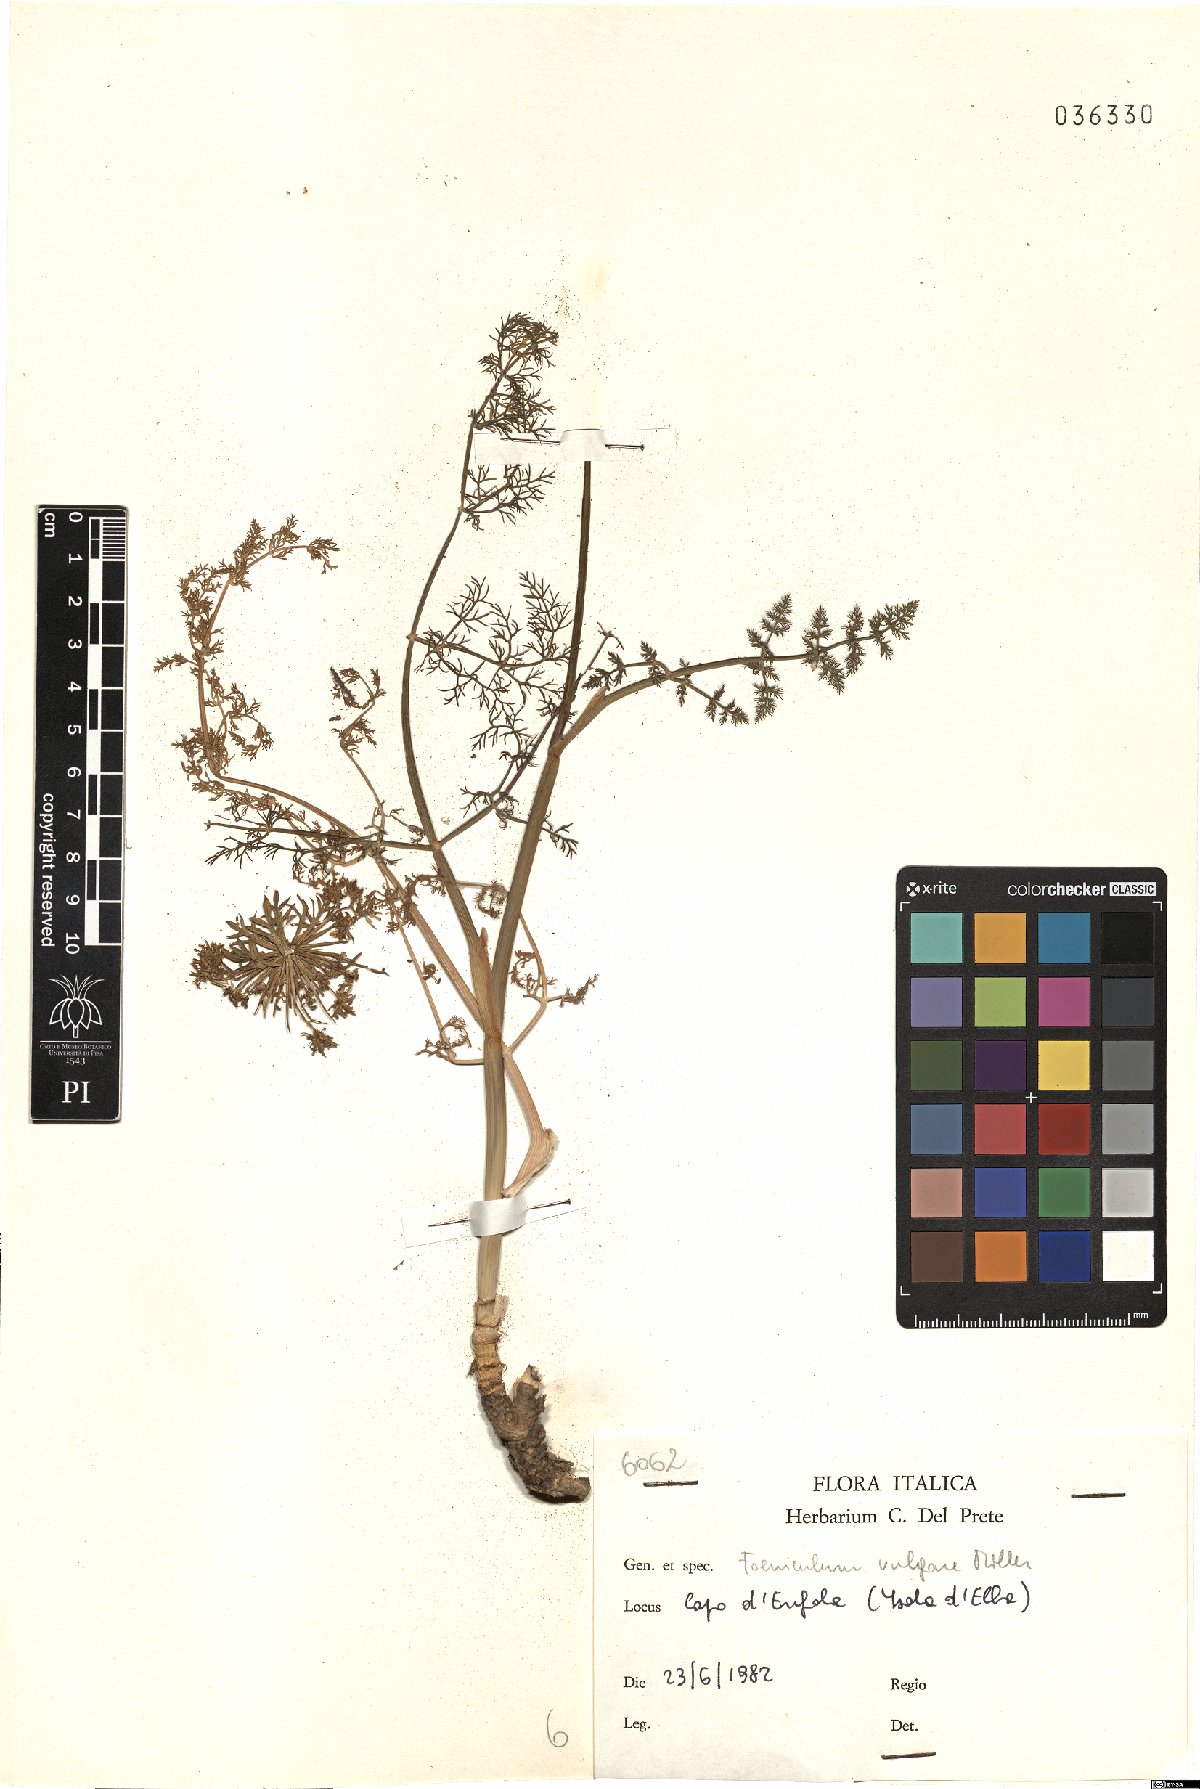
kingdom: Plantae
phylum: Tracheophyta
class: Magnoliopsida
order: Apiales
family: Apiaceae
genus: Foeniculum
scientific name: Foeniculum vulgare
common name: Fennel
